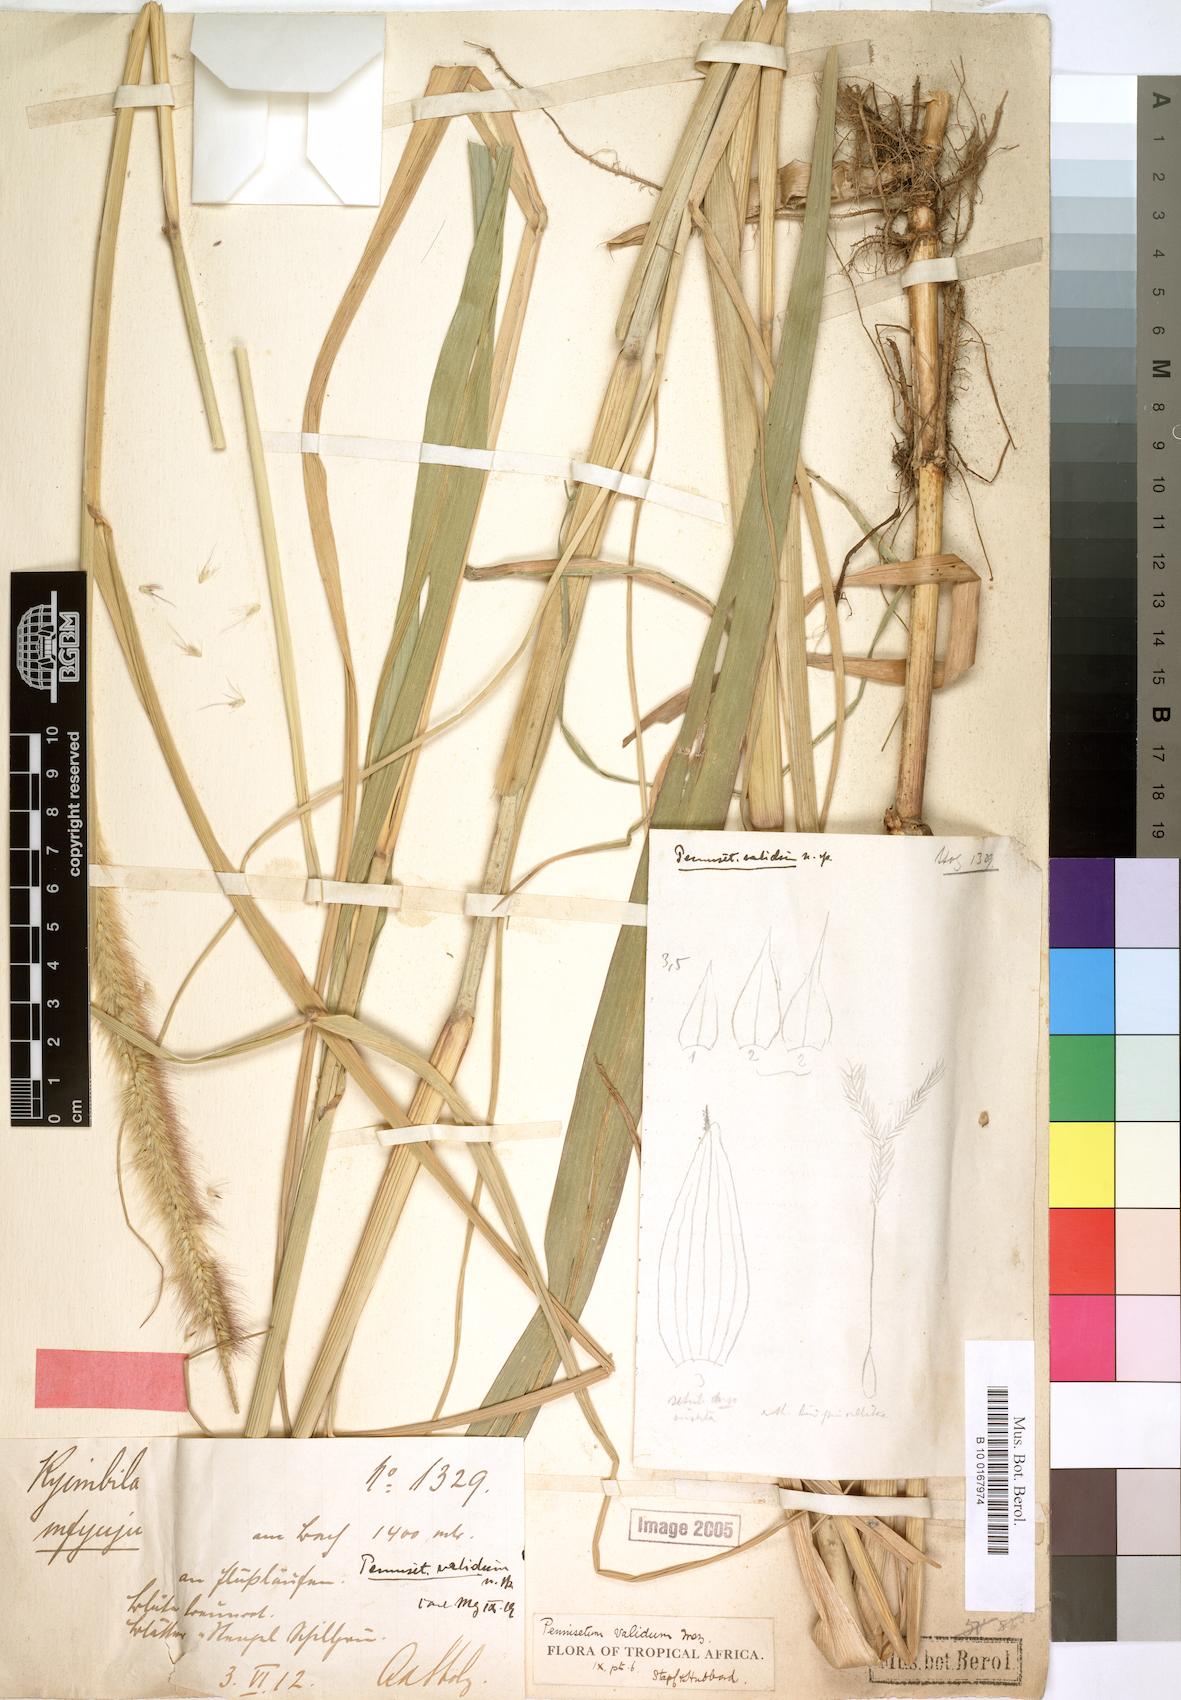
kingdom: Plantae
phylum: Tracheophyta
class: Liliopsida
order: Poales
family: Poaceae
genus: Cenchrus
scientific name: Cenchrus caudatus
